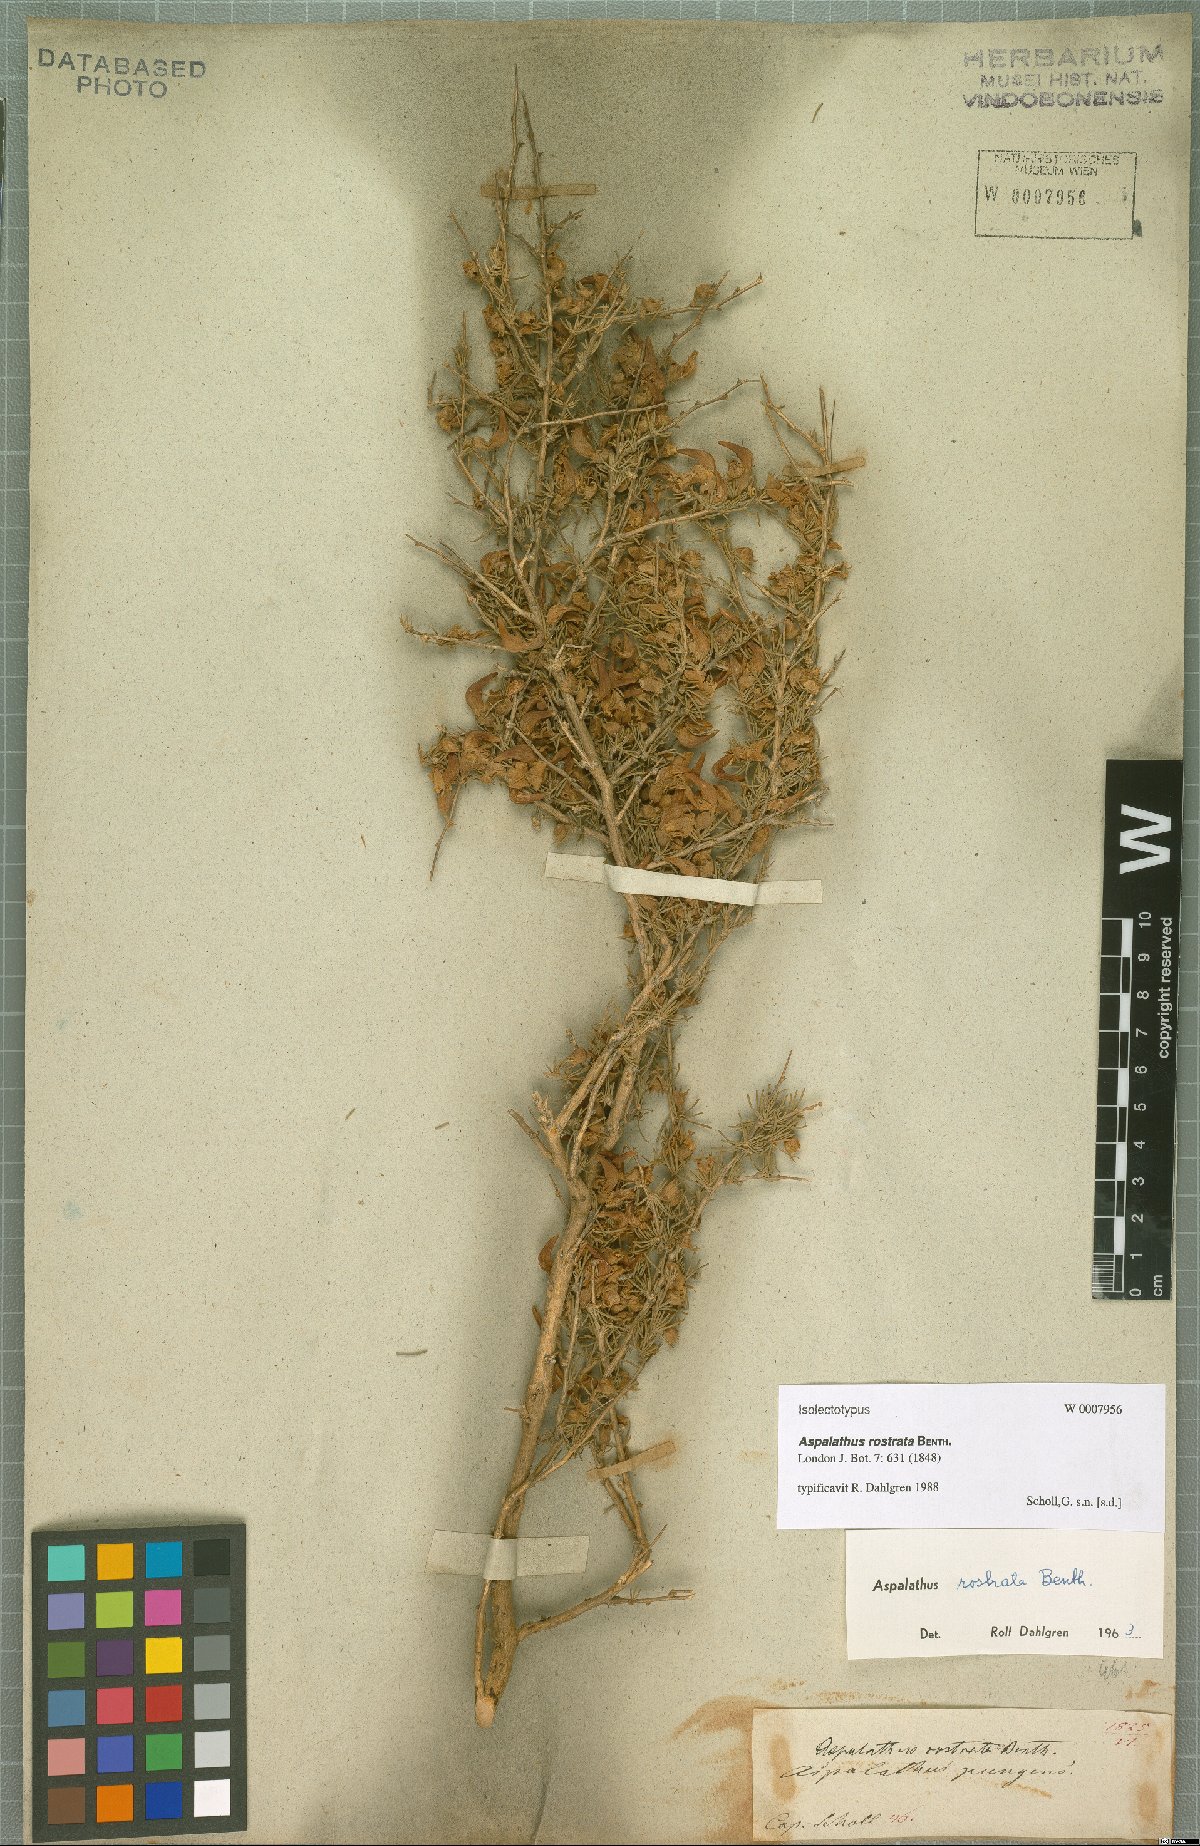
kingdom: Plantae
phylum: Tracheophyta
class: Magnoliopsida
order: Fabales
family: Fabaceae
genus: Aspalathus
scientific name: Aspalathus rostrata
